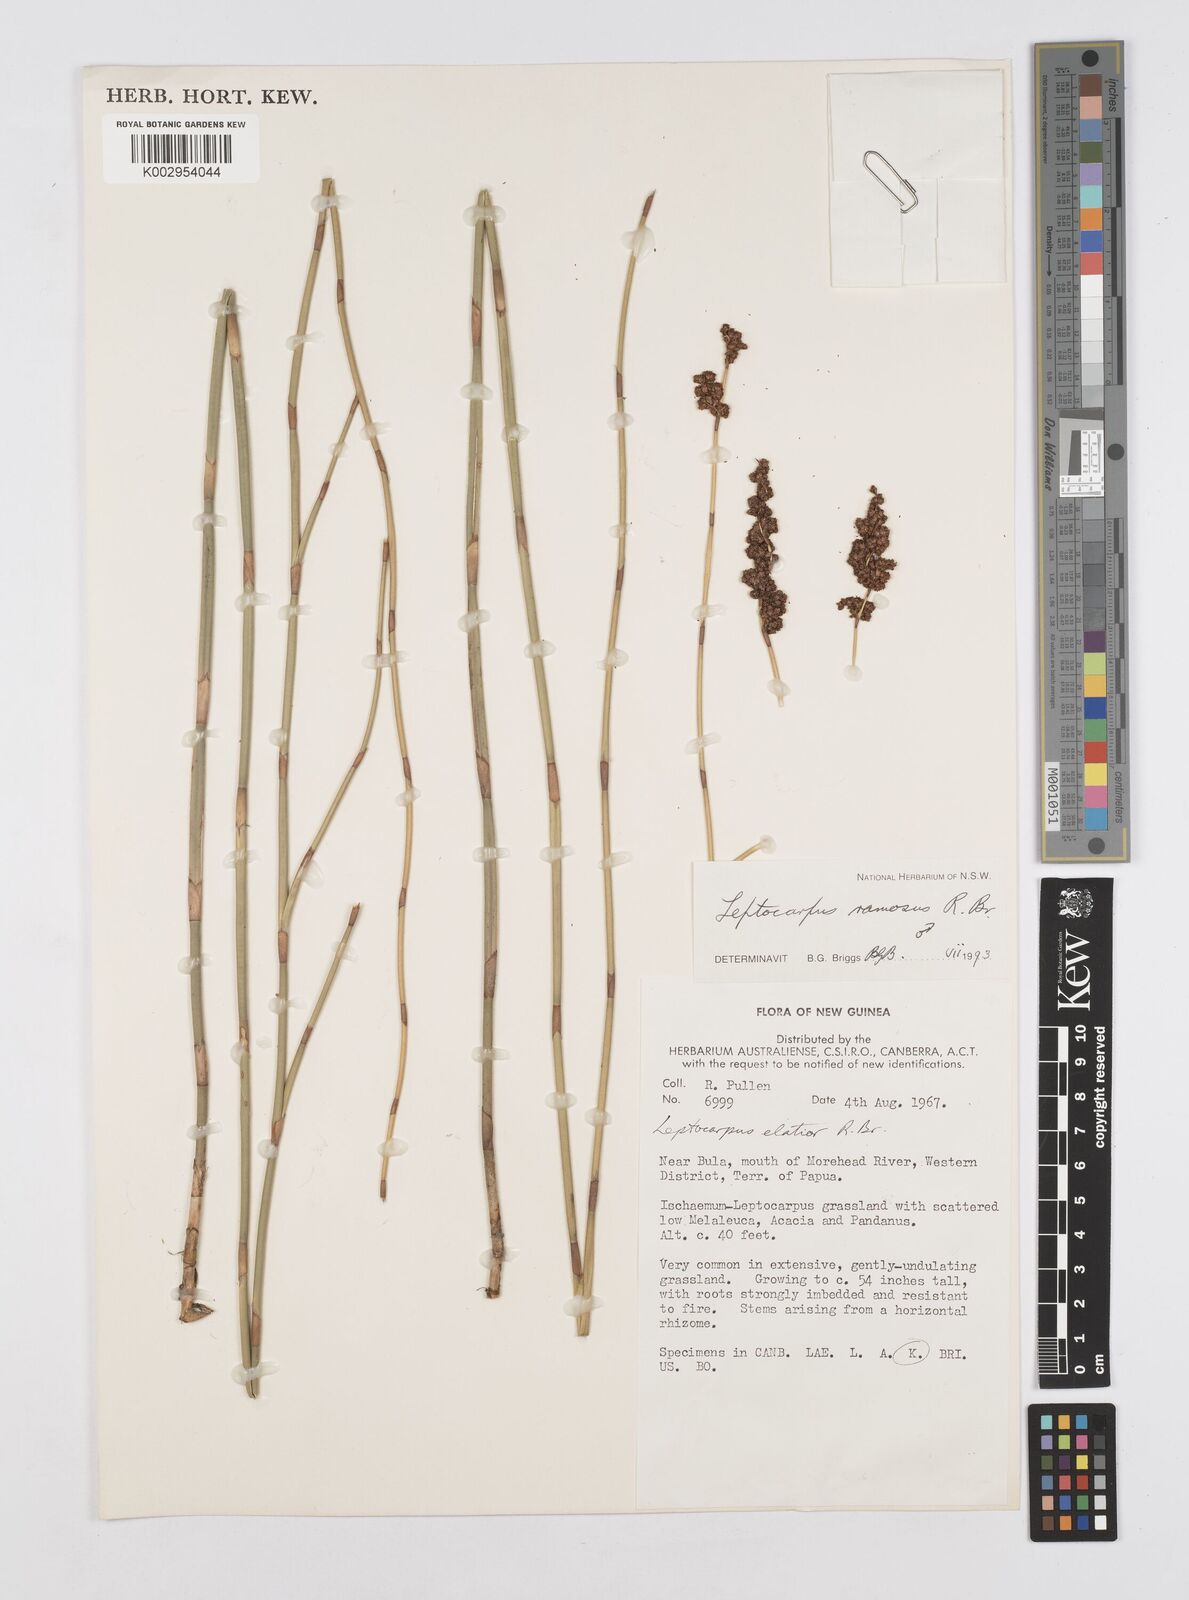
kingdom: Plantae
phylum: Tracheophyta
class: Liliopsida
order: Poales
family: Restionaceae
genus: Dapsilanthus
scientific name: Dapsilanthus ramosus
